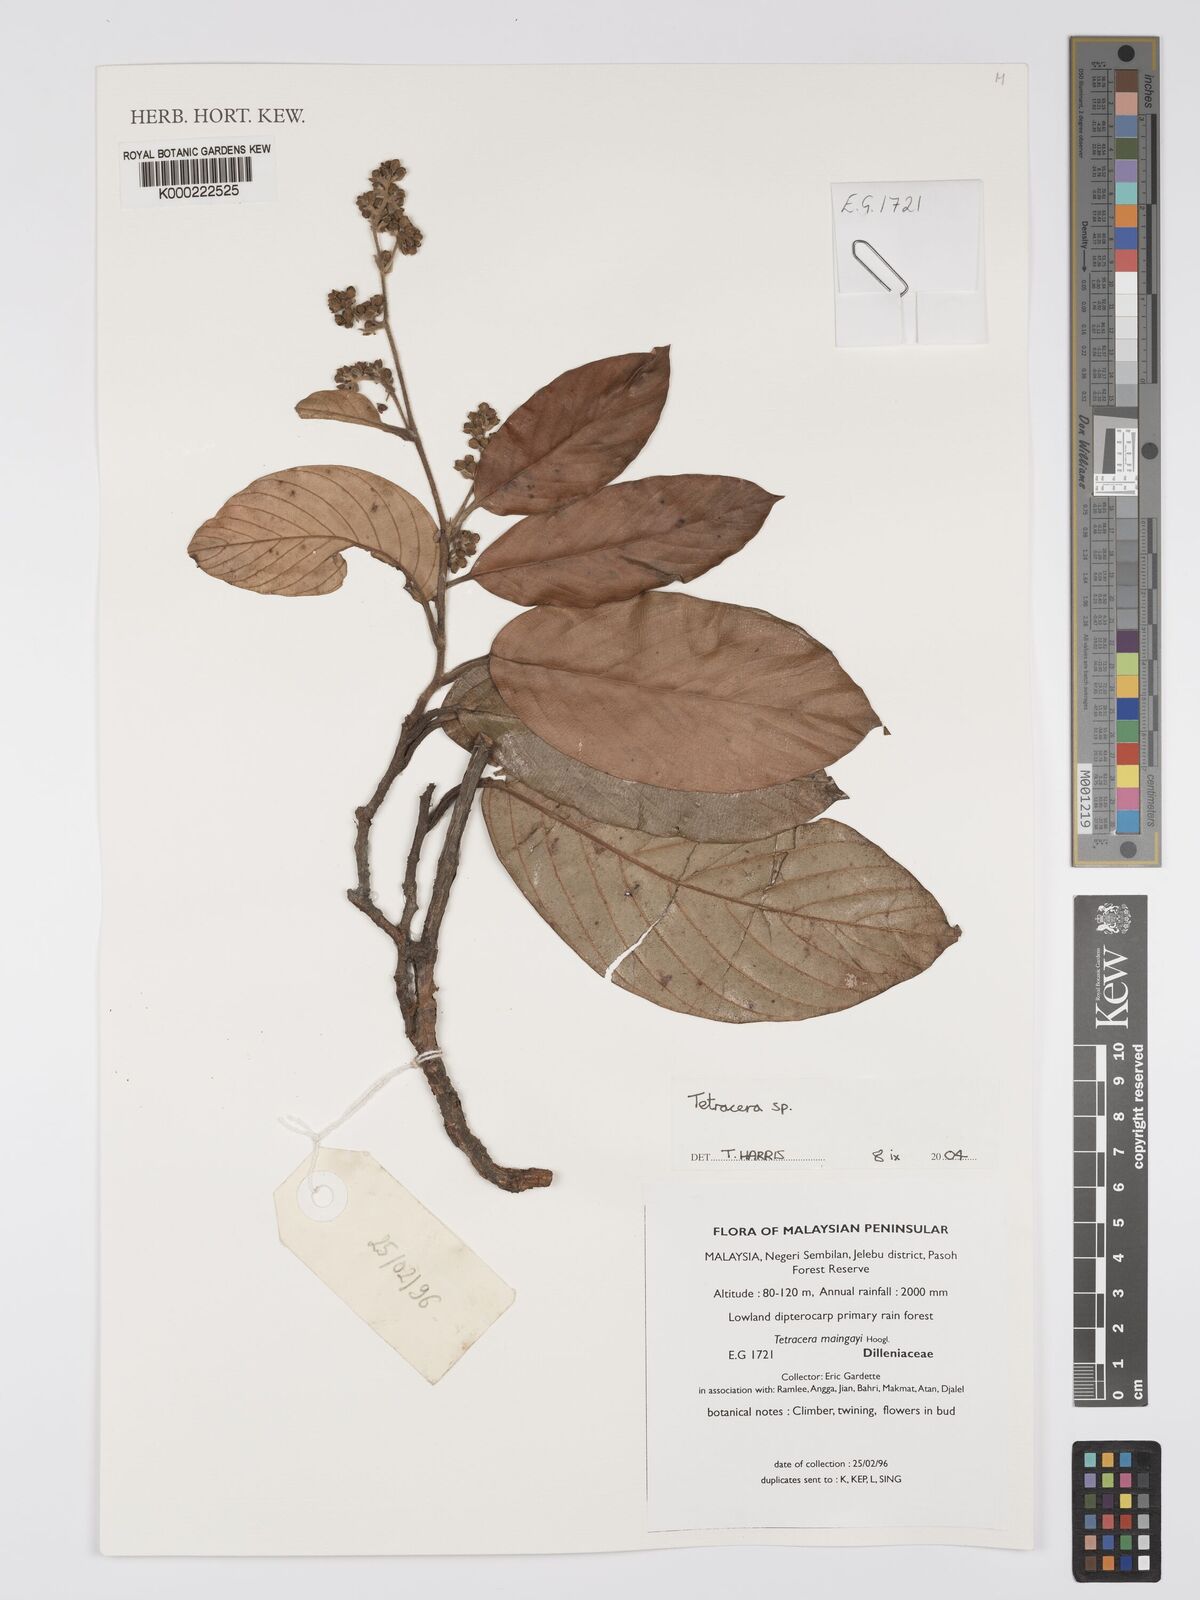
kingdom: Plantae
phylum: Tracheophyta
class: Magnoliopsida
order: Dilleniales
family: Dilleniaceae
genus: Tetracera
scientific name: Tetracera
